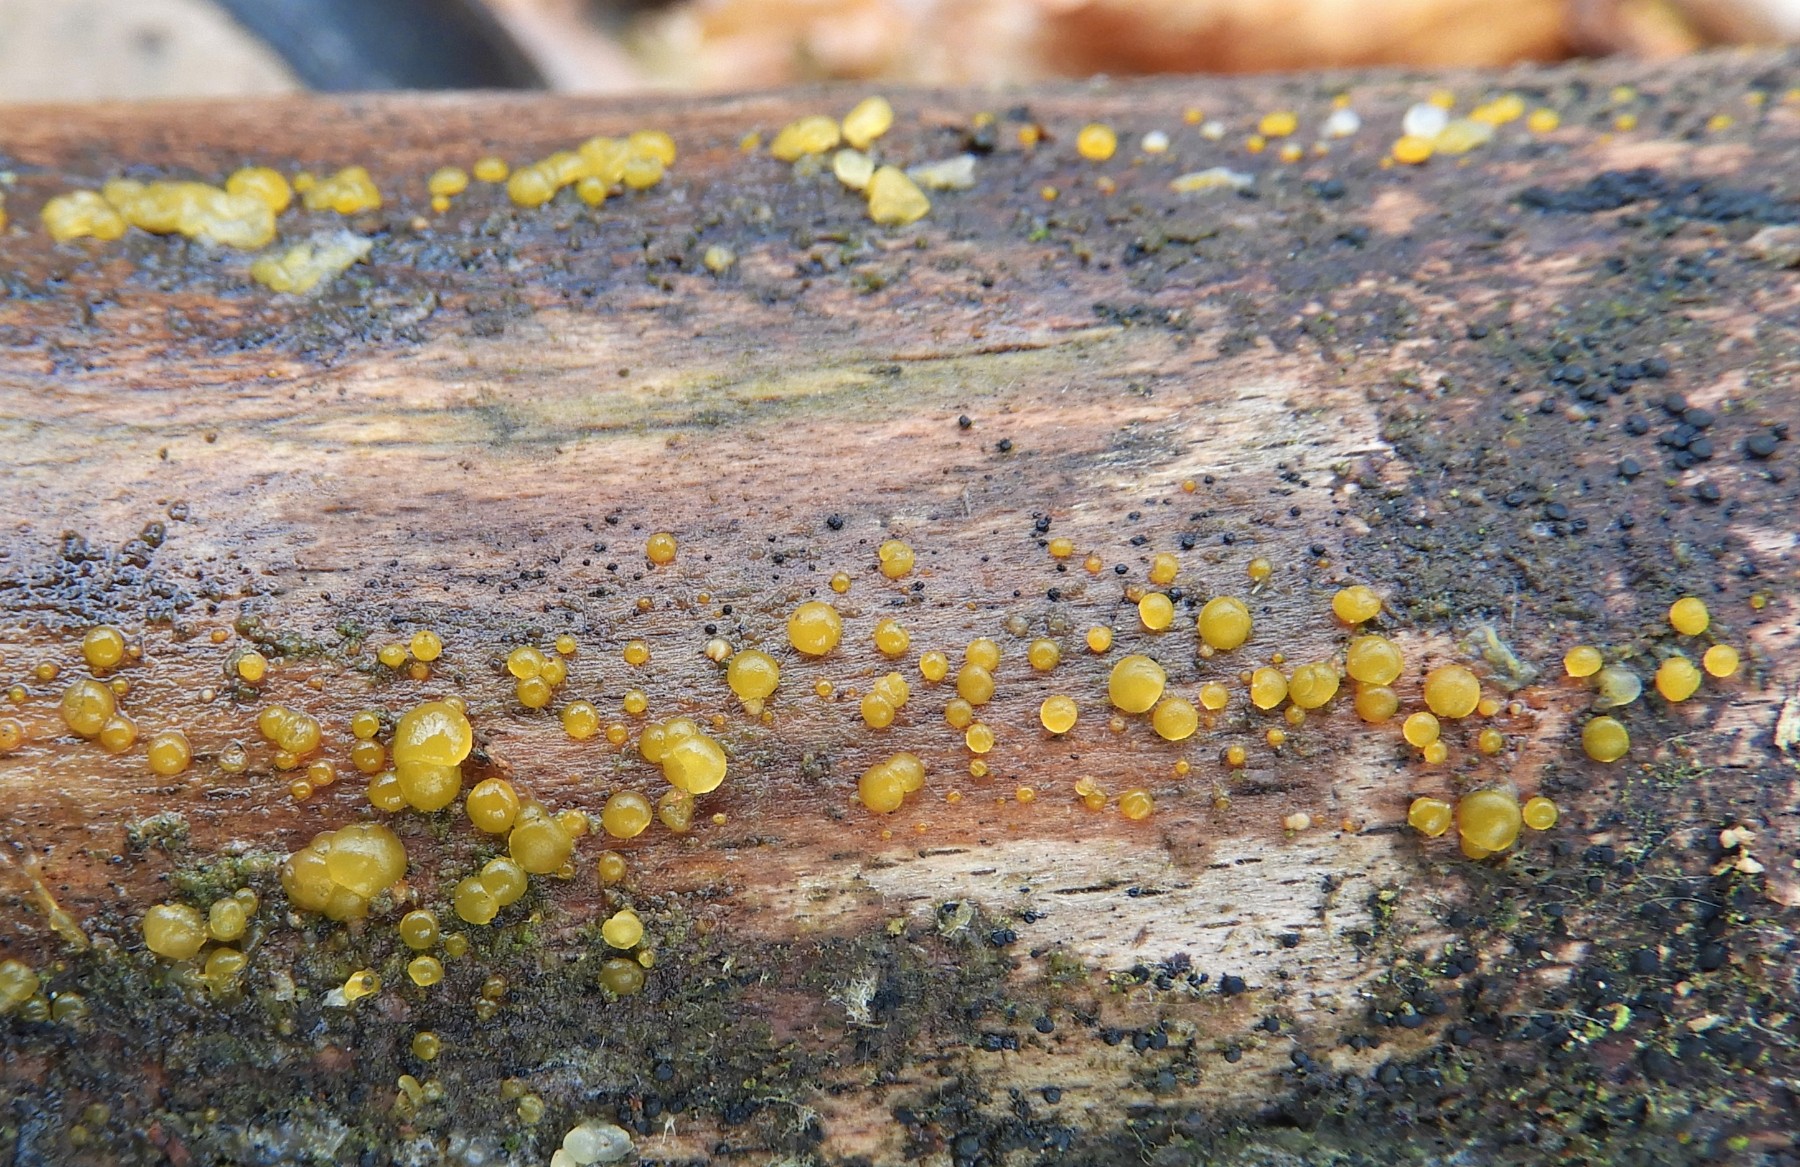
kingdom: Fungi
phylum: Basidiomycota
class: Dacrymycetes
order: Dacrymycetales
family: Dacrymycetaceae
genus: Dacrymyces
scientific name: Dacrymyces stillatus
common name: almindelig tåresvamp
